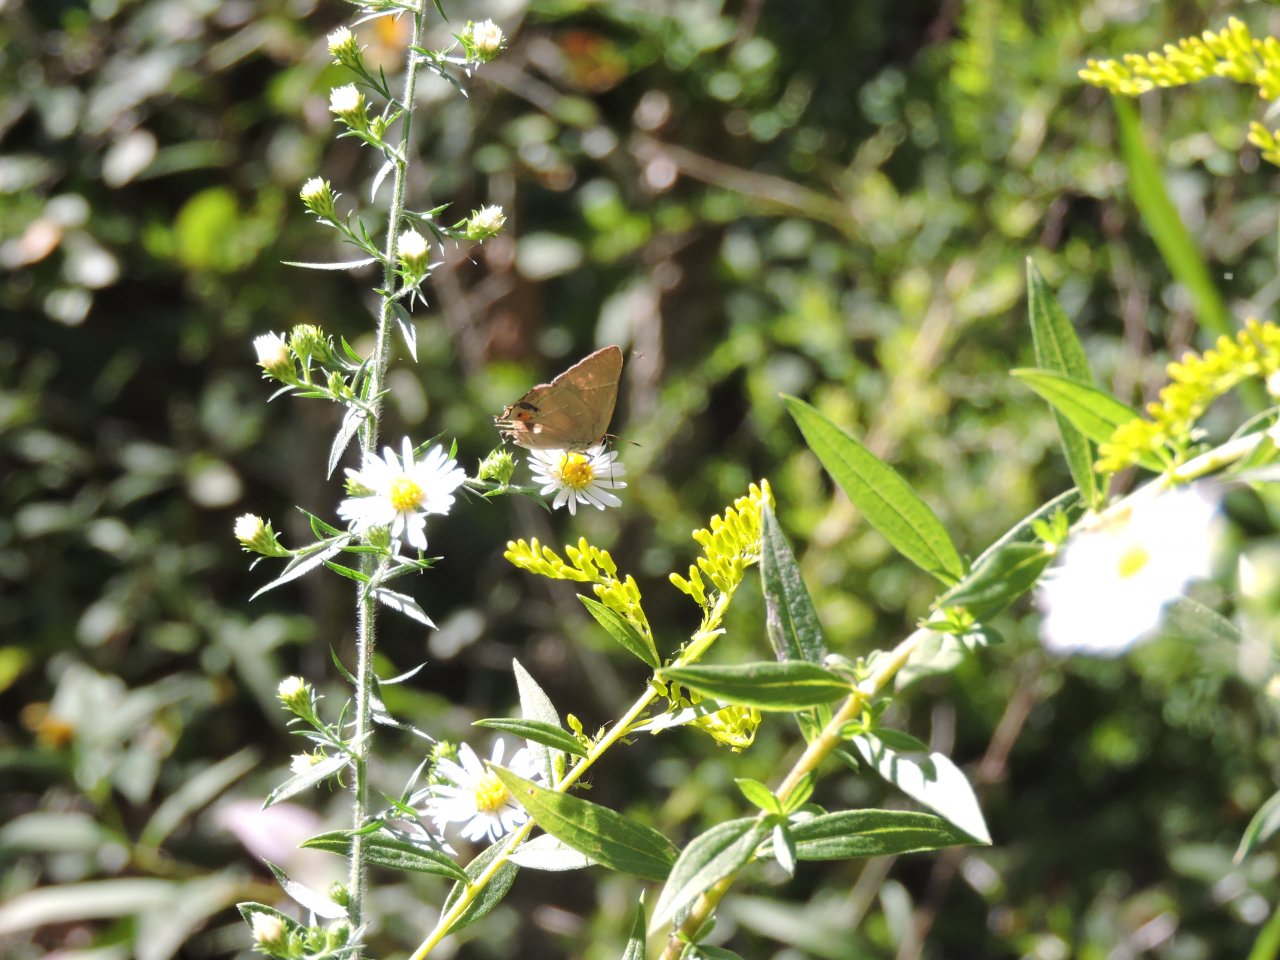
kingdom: Animalia
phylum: Arthropoda
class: Insecta
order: Lepidoptera
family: Lycaenidae
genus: Strymon
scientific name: Strymon melinus
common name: Gray Hairstreak
